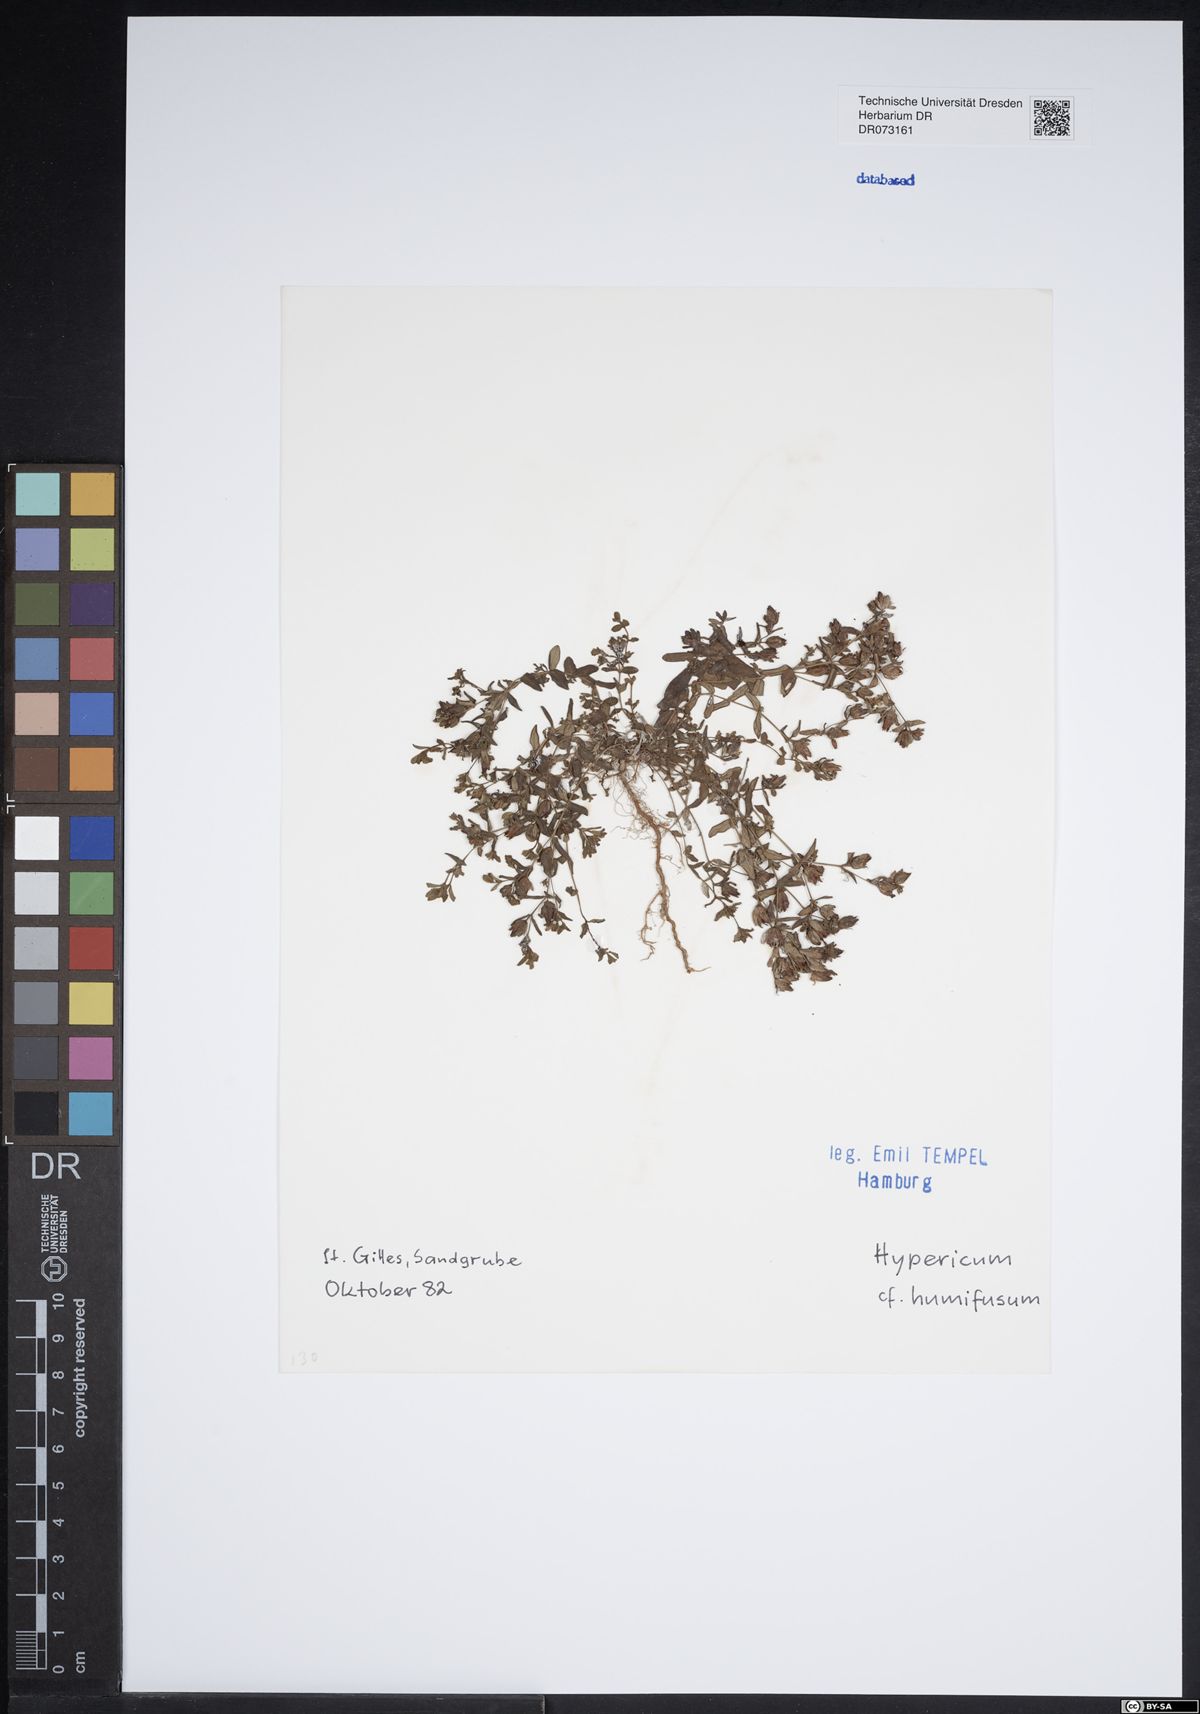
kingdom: Plantae
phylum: Tracheophyta
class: Magnoliopsida
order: Malpighiales
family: Hypericaceae
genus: Hypericum
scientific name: Hypericum humifusum
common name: Trailing st. john's-wort
